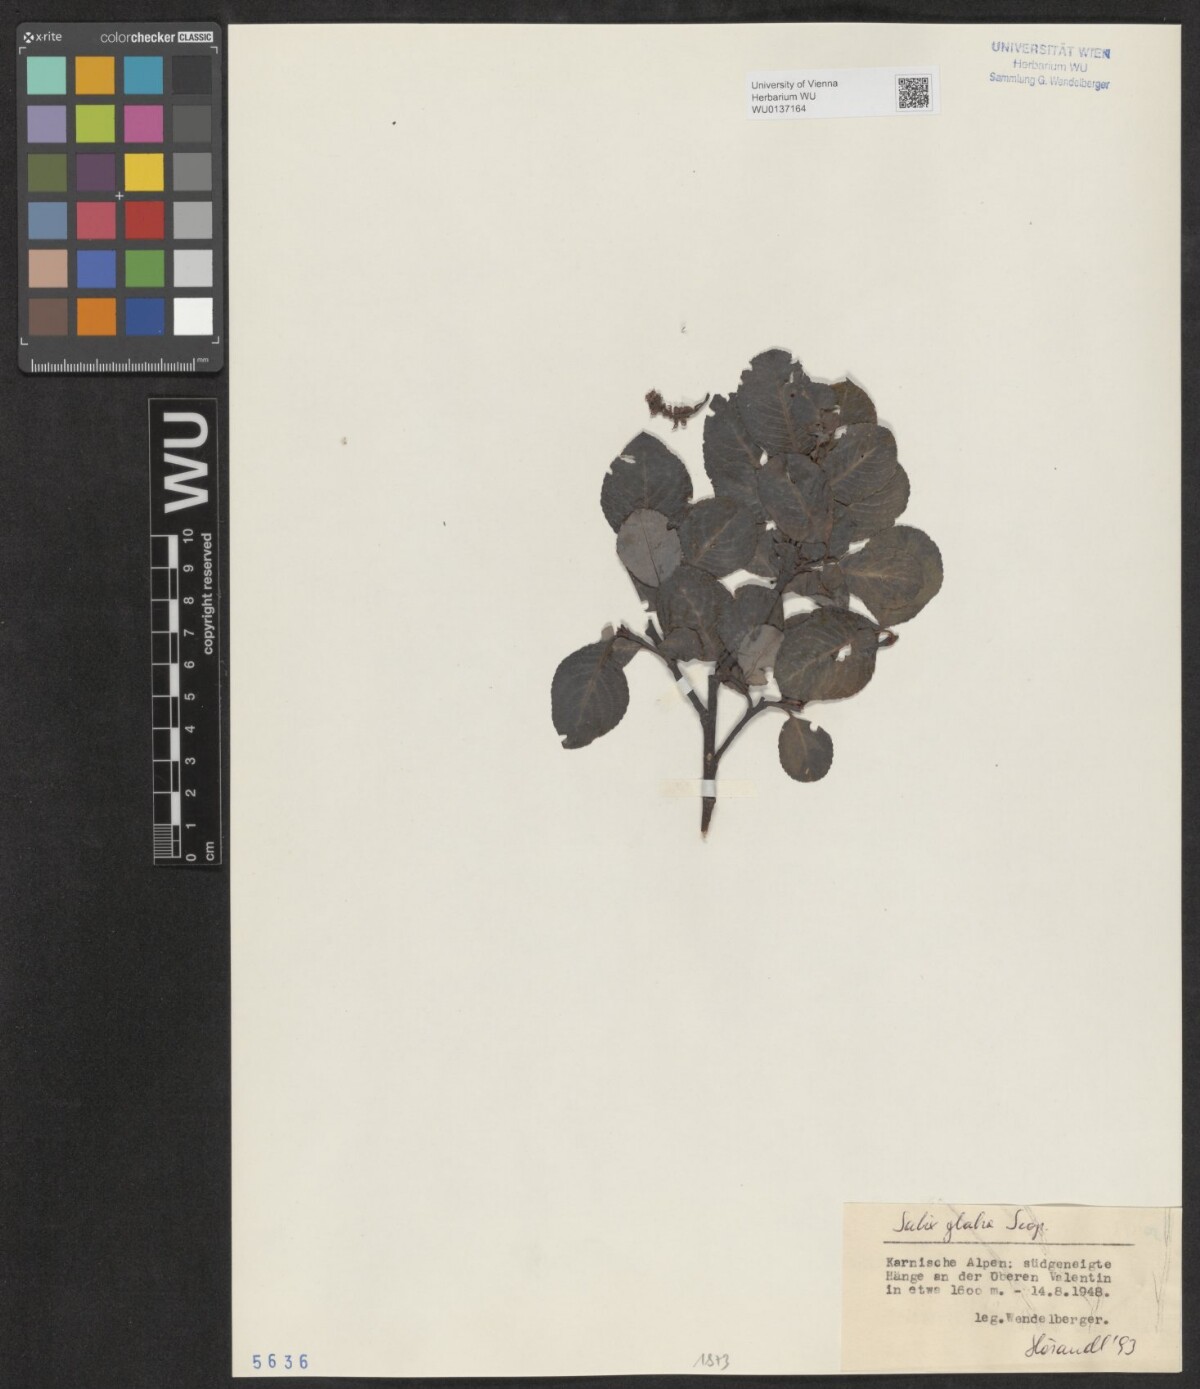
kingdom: Plantae
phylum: Tracheophyta
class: Magnoliopsida
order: Malpighiales
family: Salicaceae
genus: Salix
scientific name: Salix glabra
